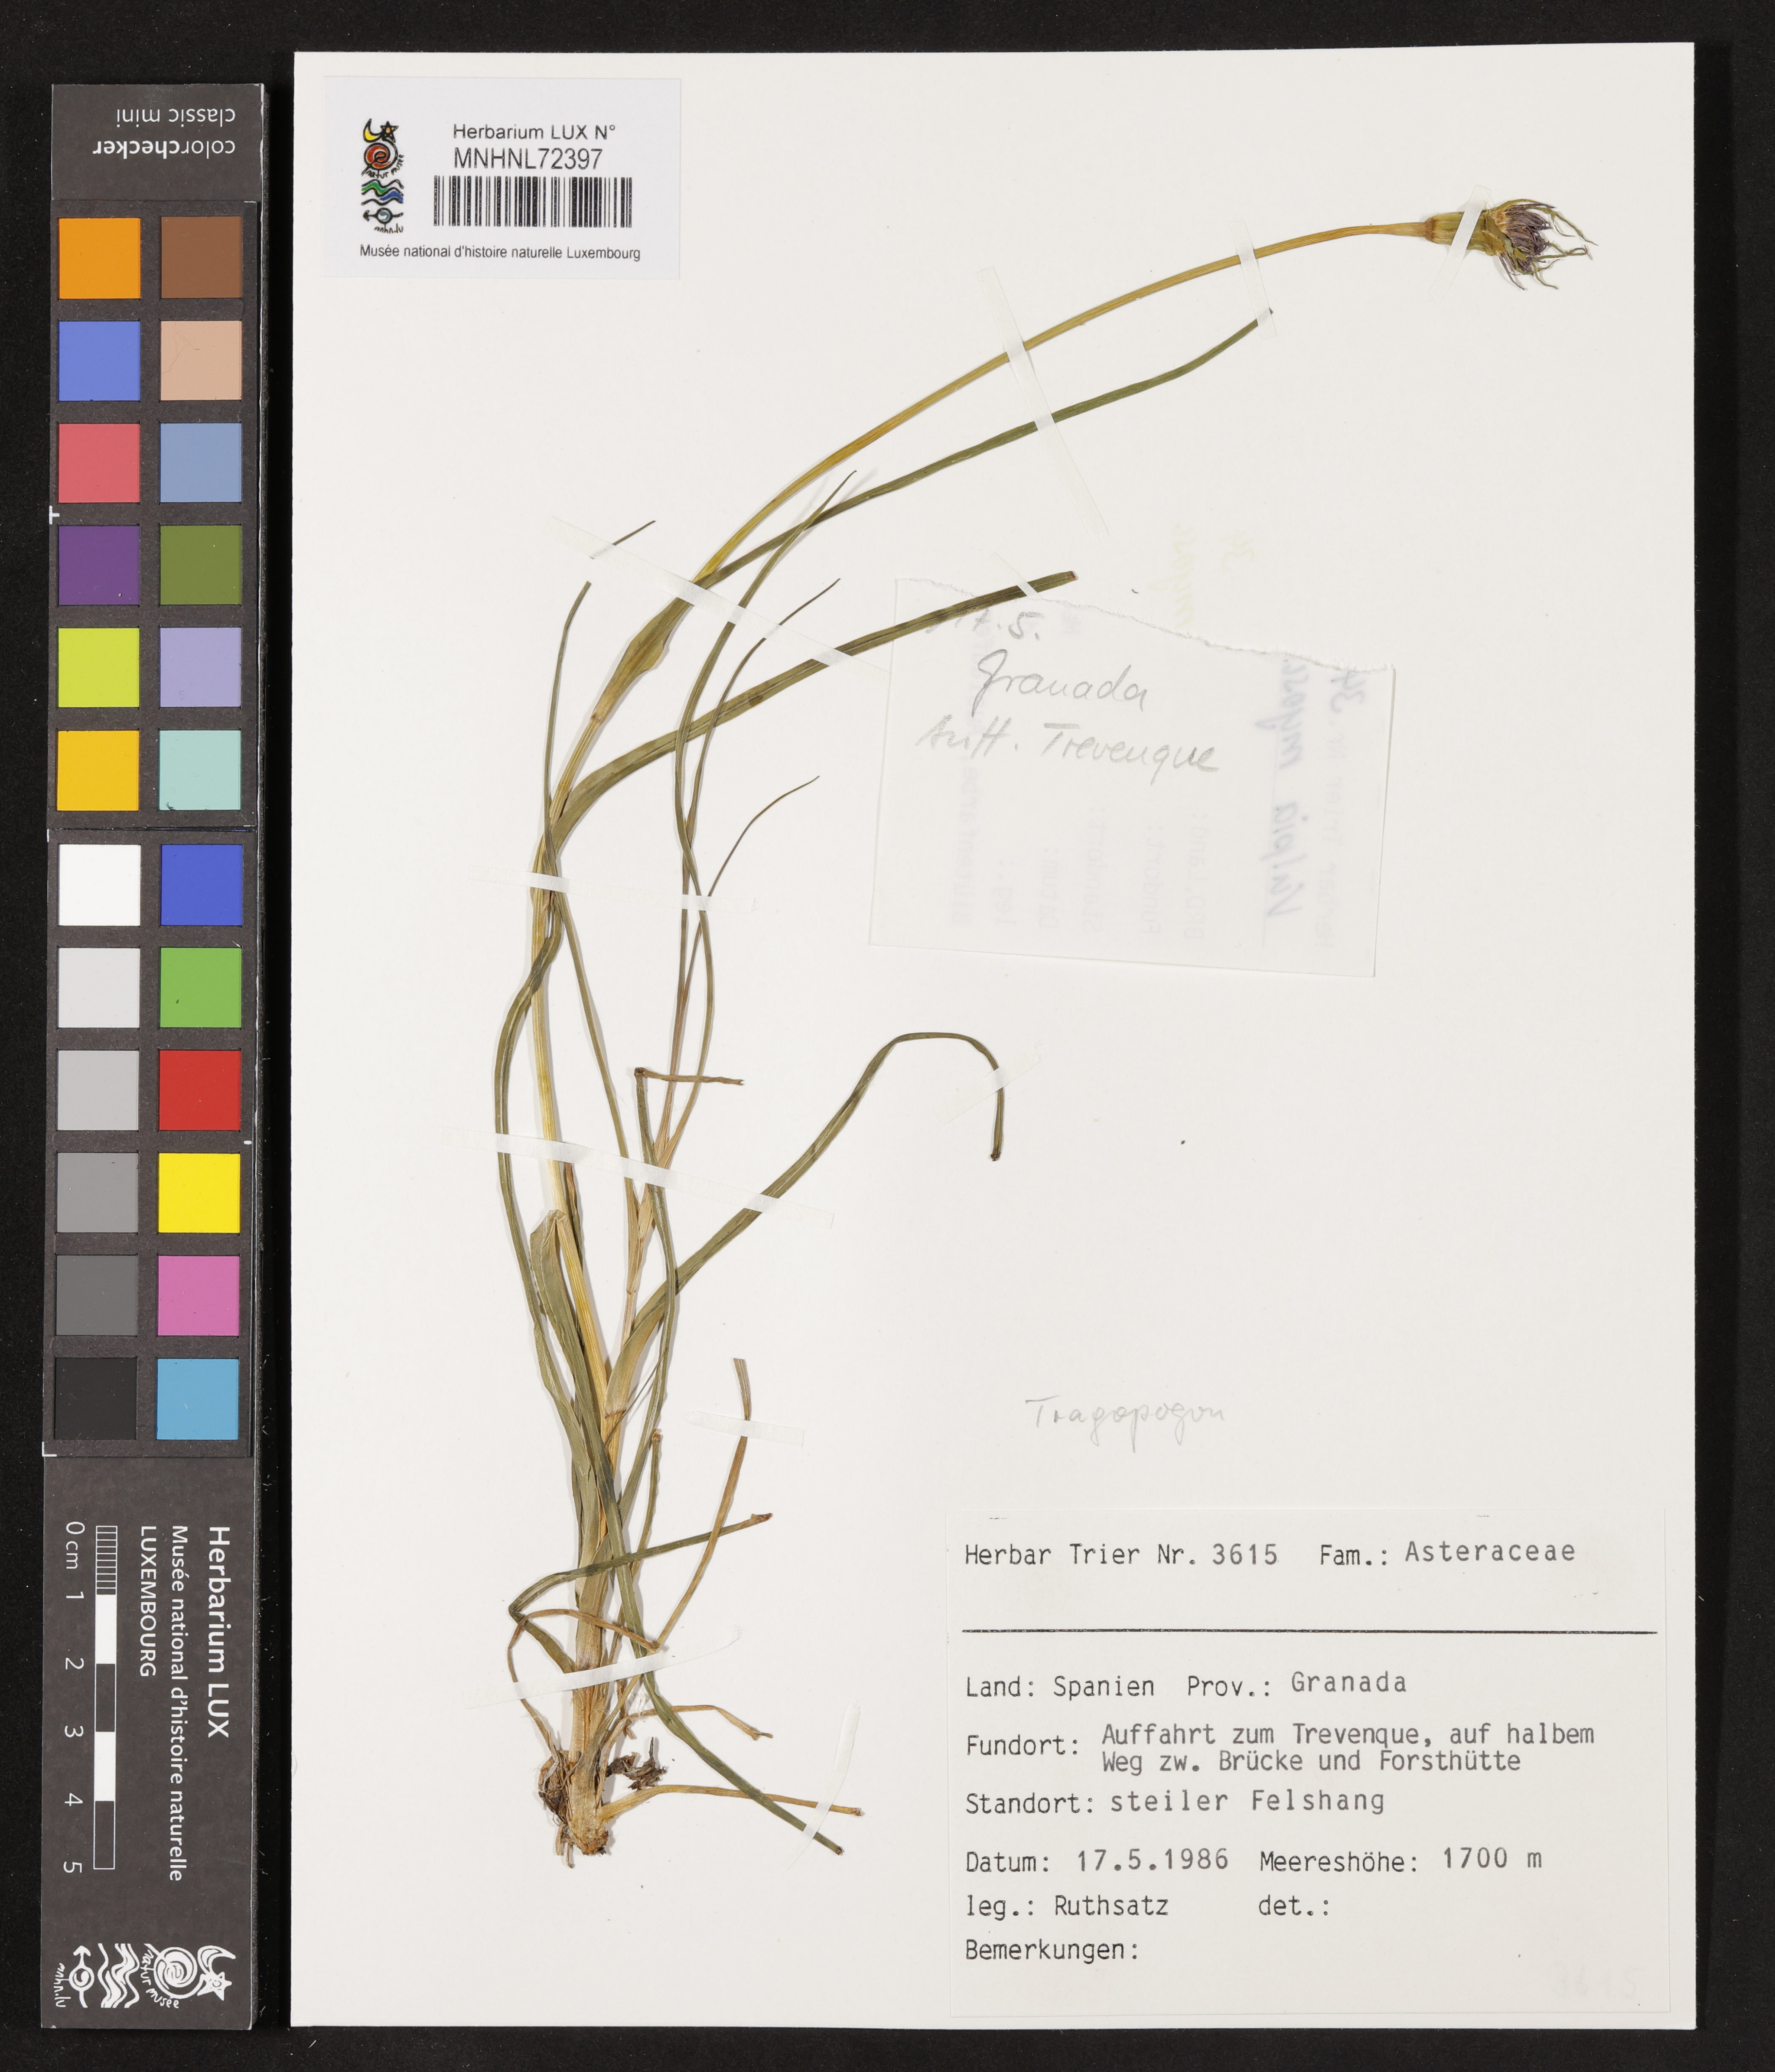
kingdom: Plantae
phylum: Tracheophyta
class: Magnoliopsida
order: Asterales
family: Asteraceae
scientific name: Asteraceae
